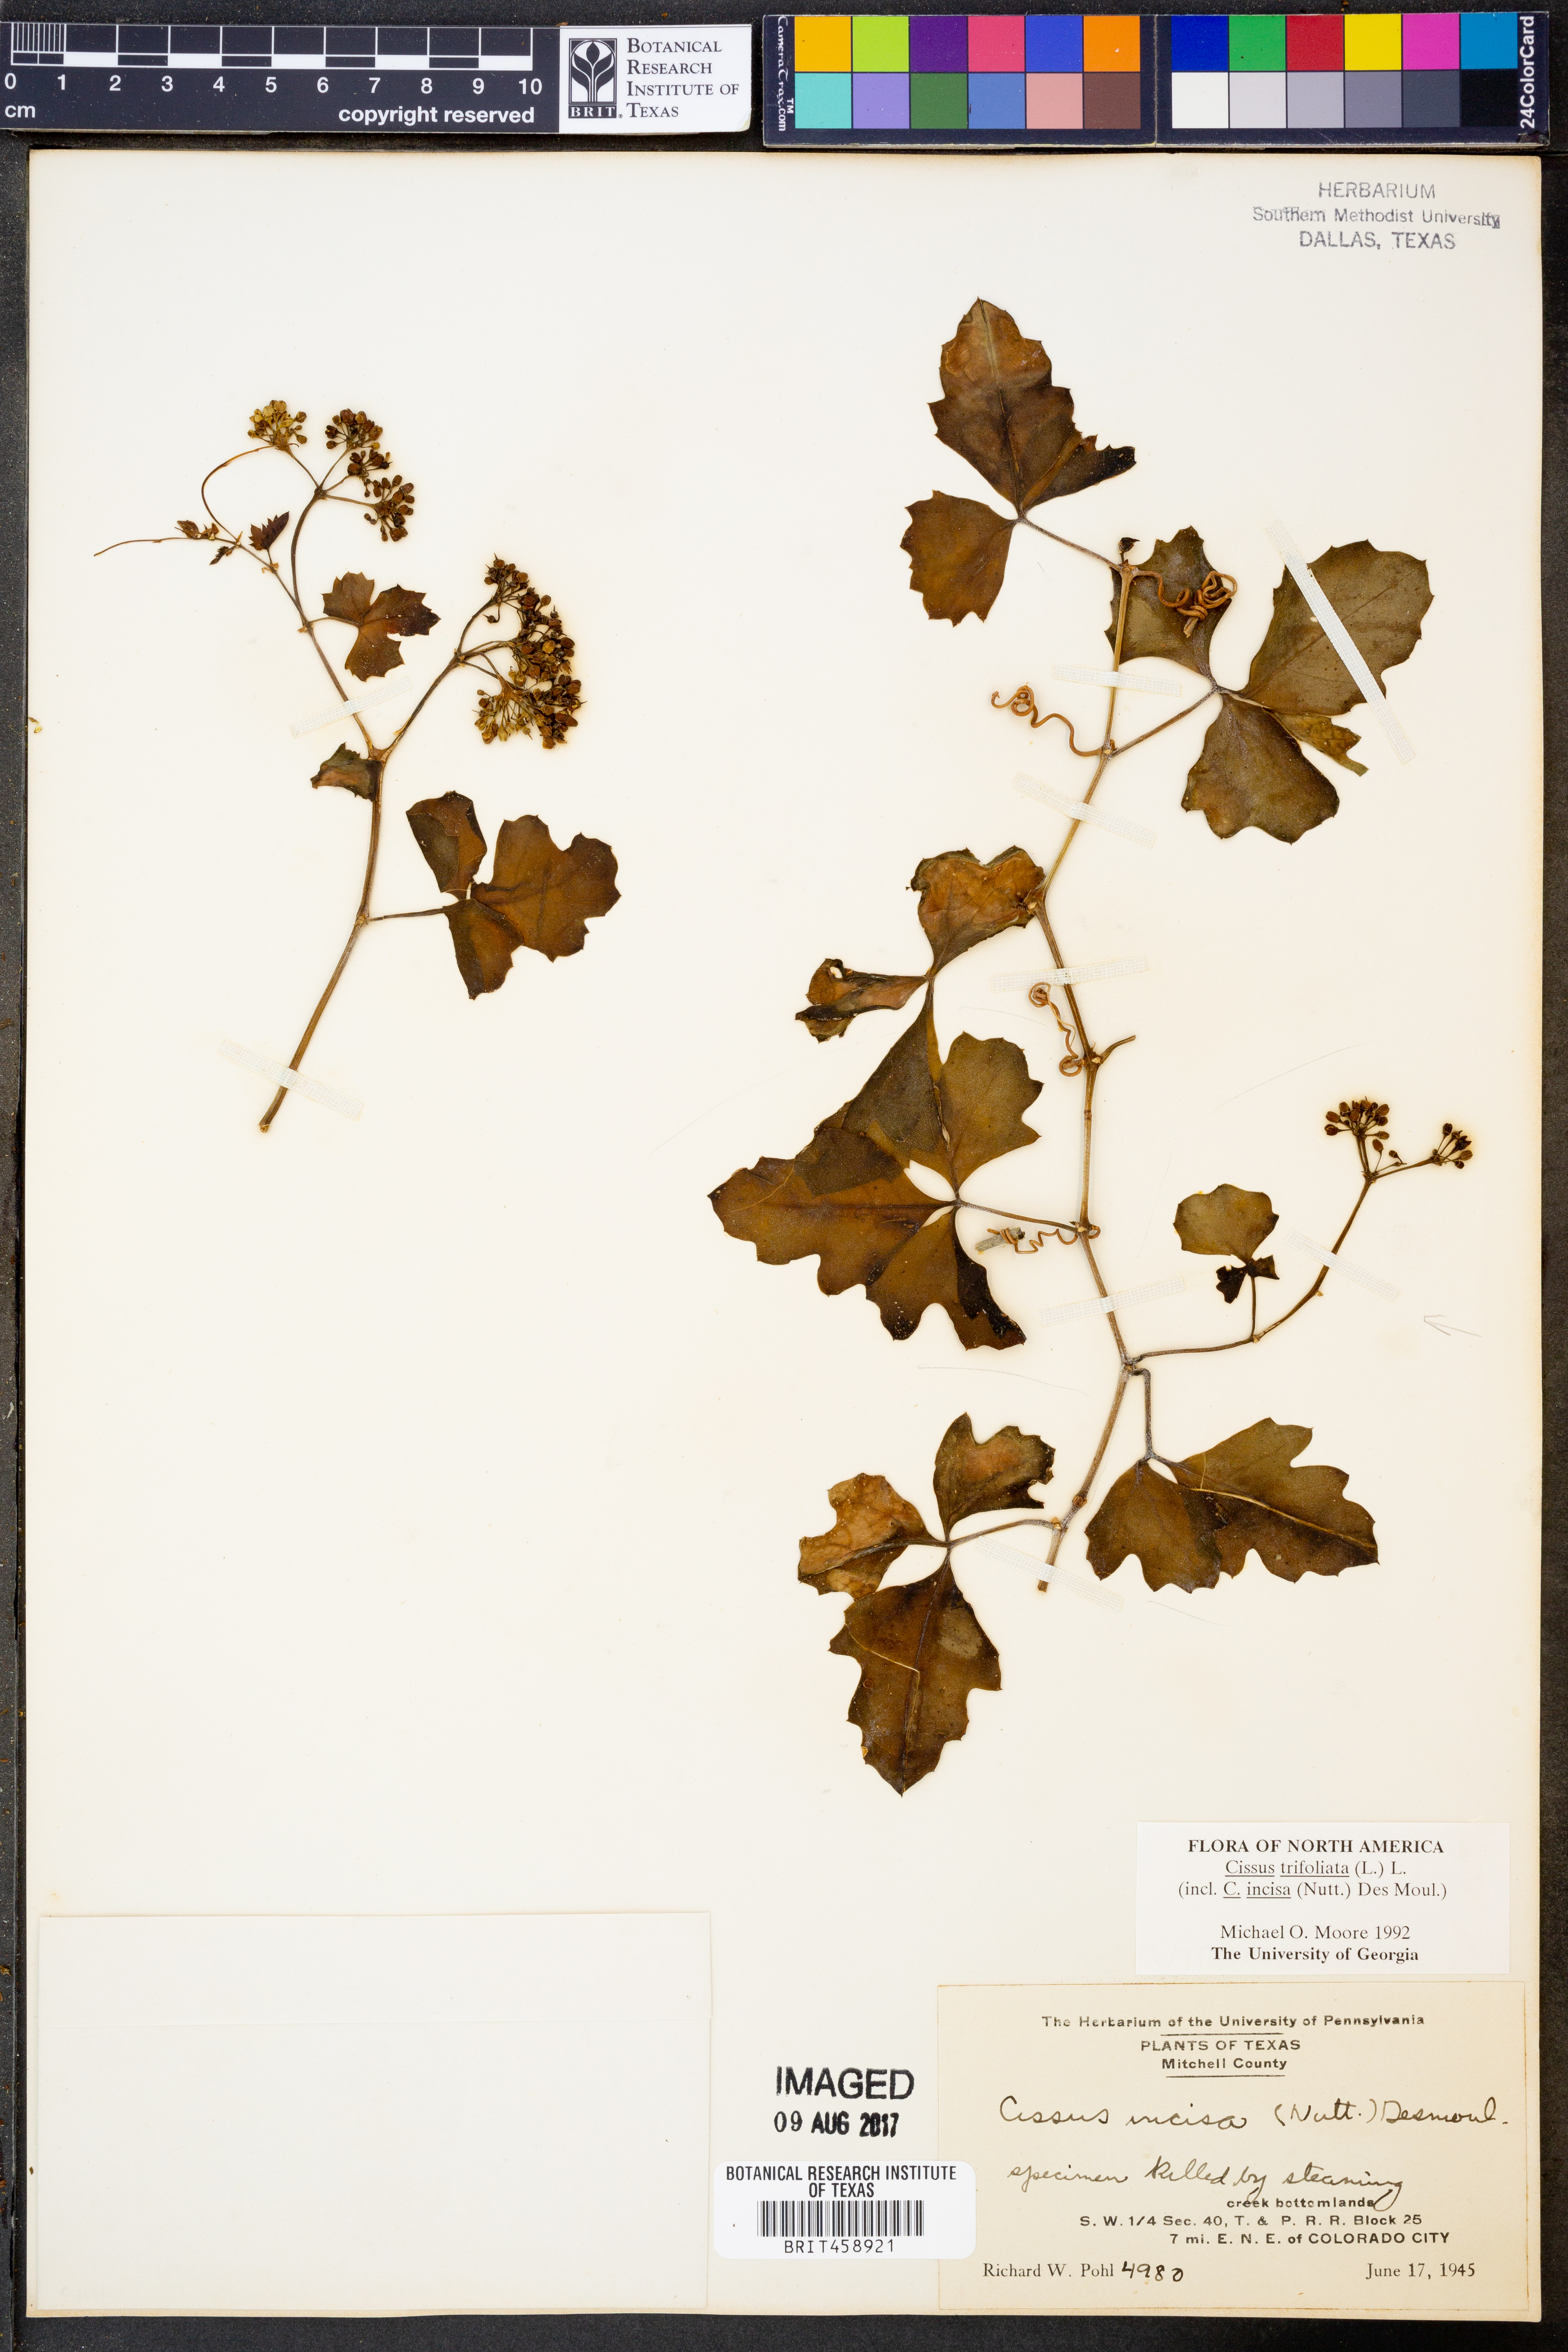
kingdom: Plantae
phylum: Tracheophyta
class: Magnoliopsida
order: Vitales
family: Vitaceae
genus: Cissus
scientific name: Cissus trifoliata
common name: Vine-sorrel
